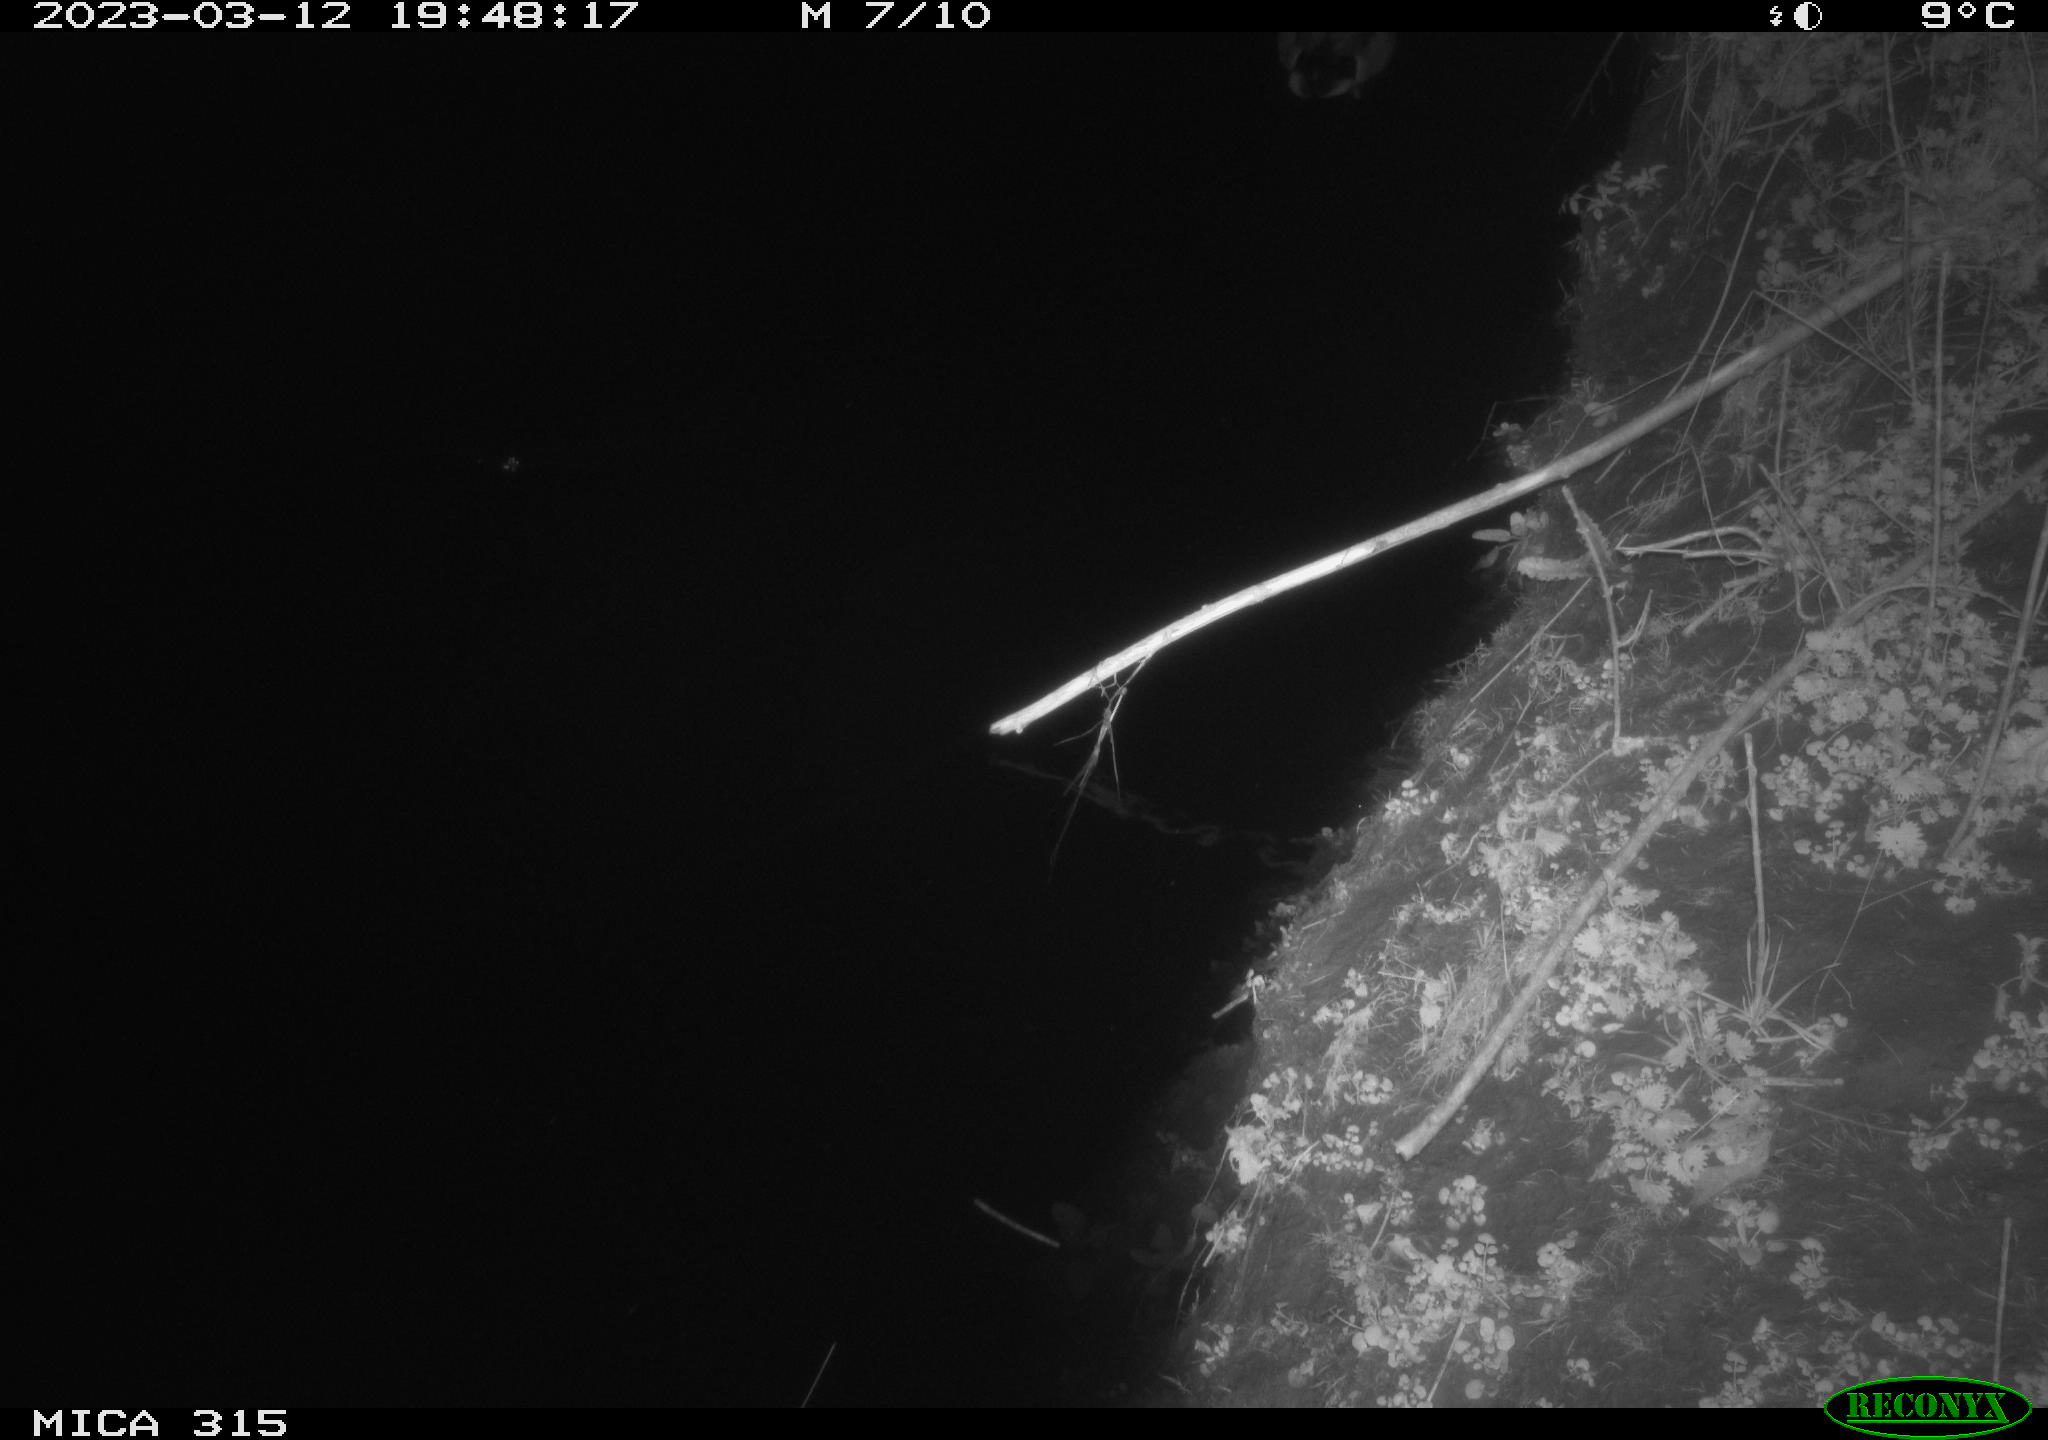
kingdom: Animalia
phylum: Chordata
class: Aves
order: Anseriformes
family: Anatidae
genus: Anas
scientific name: Anas
